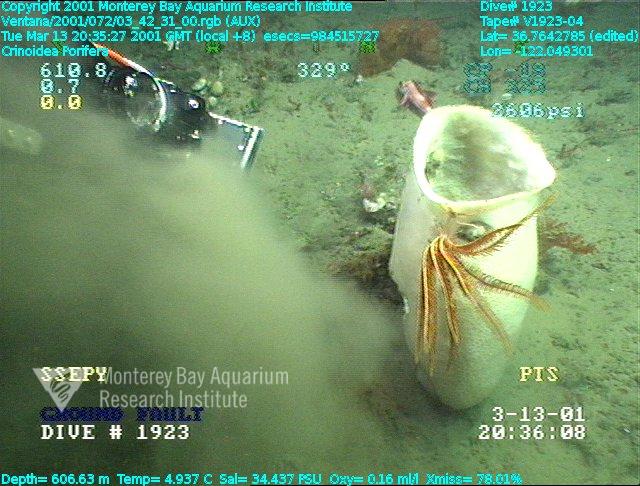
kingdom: Animalia
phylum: Porifera
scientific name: Porifera
